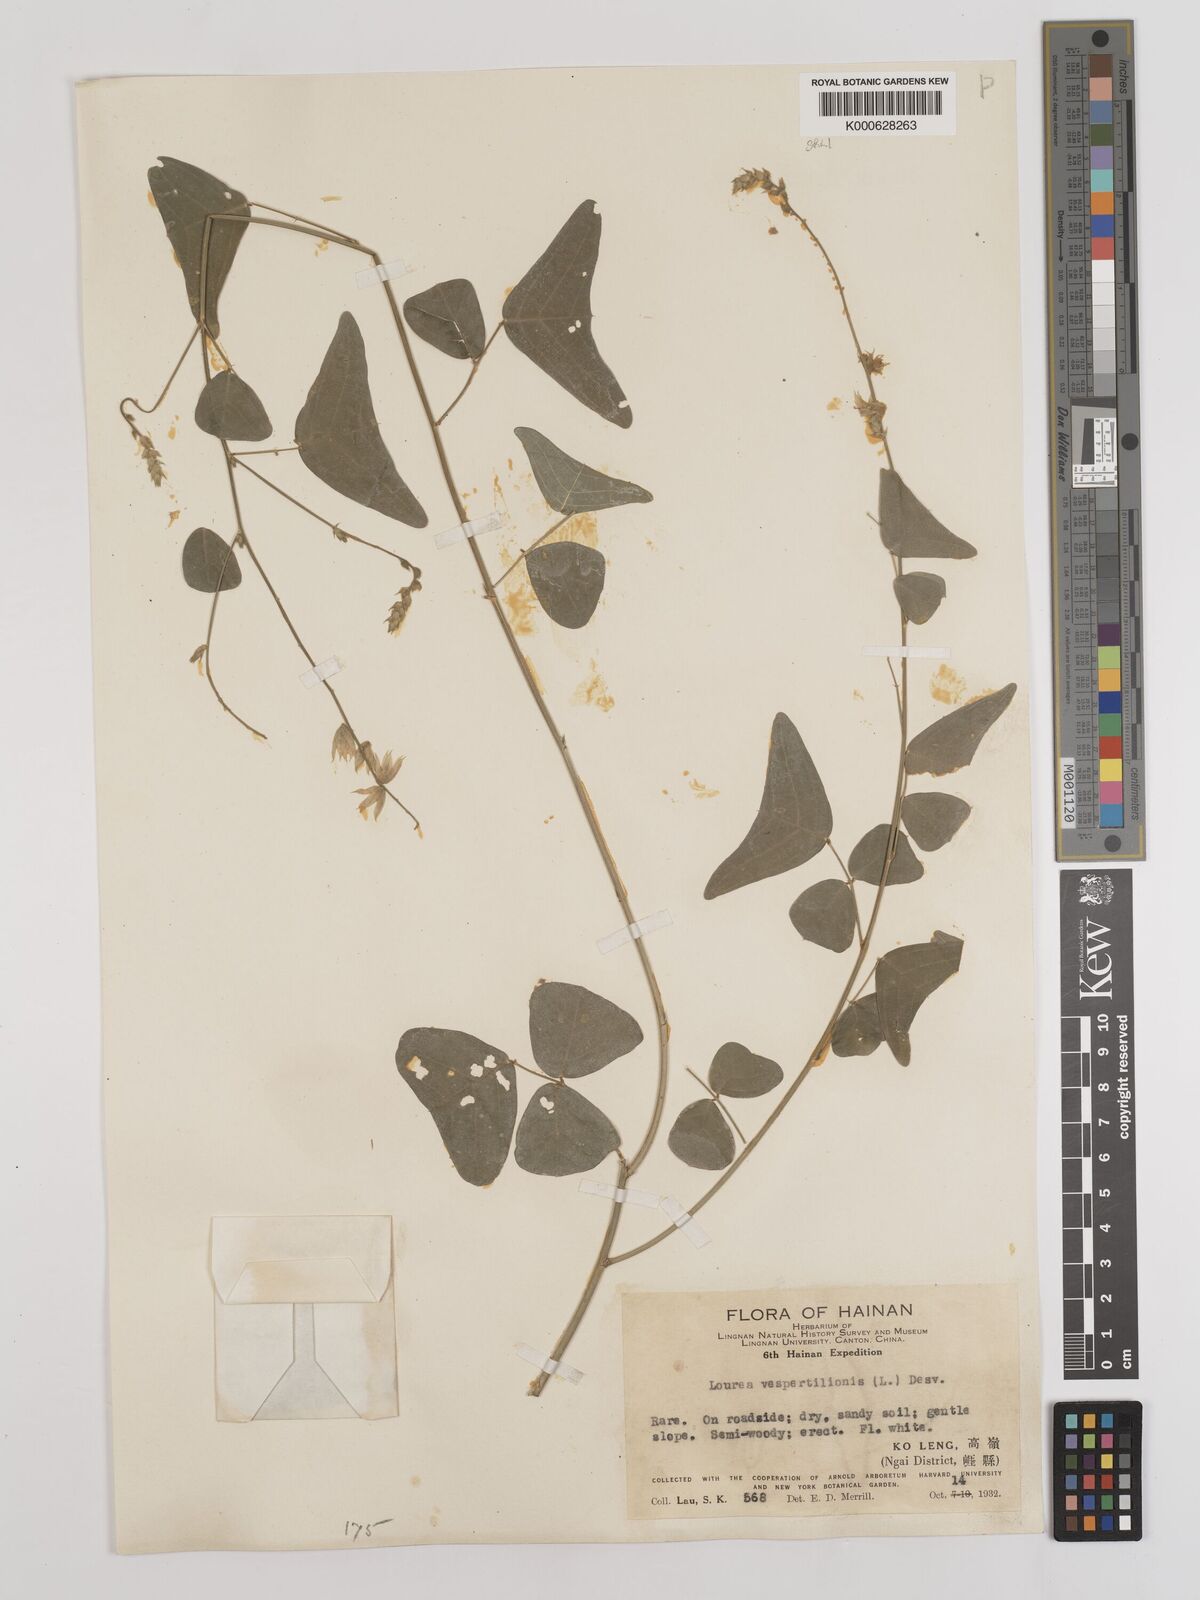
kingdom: Plantae
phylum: Tracheophyta
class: Magnoliopsida
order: Fabales
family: Fabaceae
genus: Christia
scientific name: Christia vespertilionis
